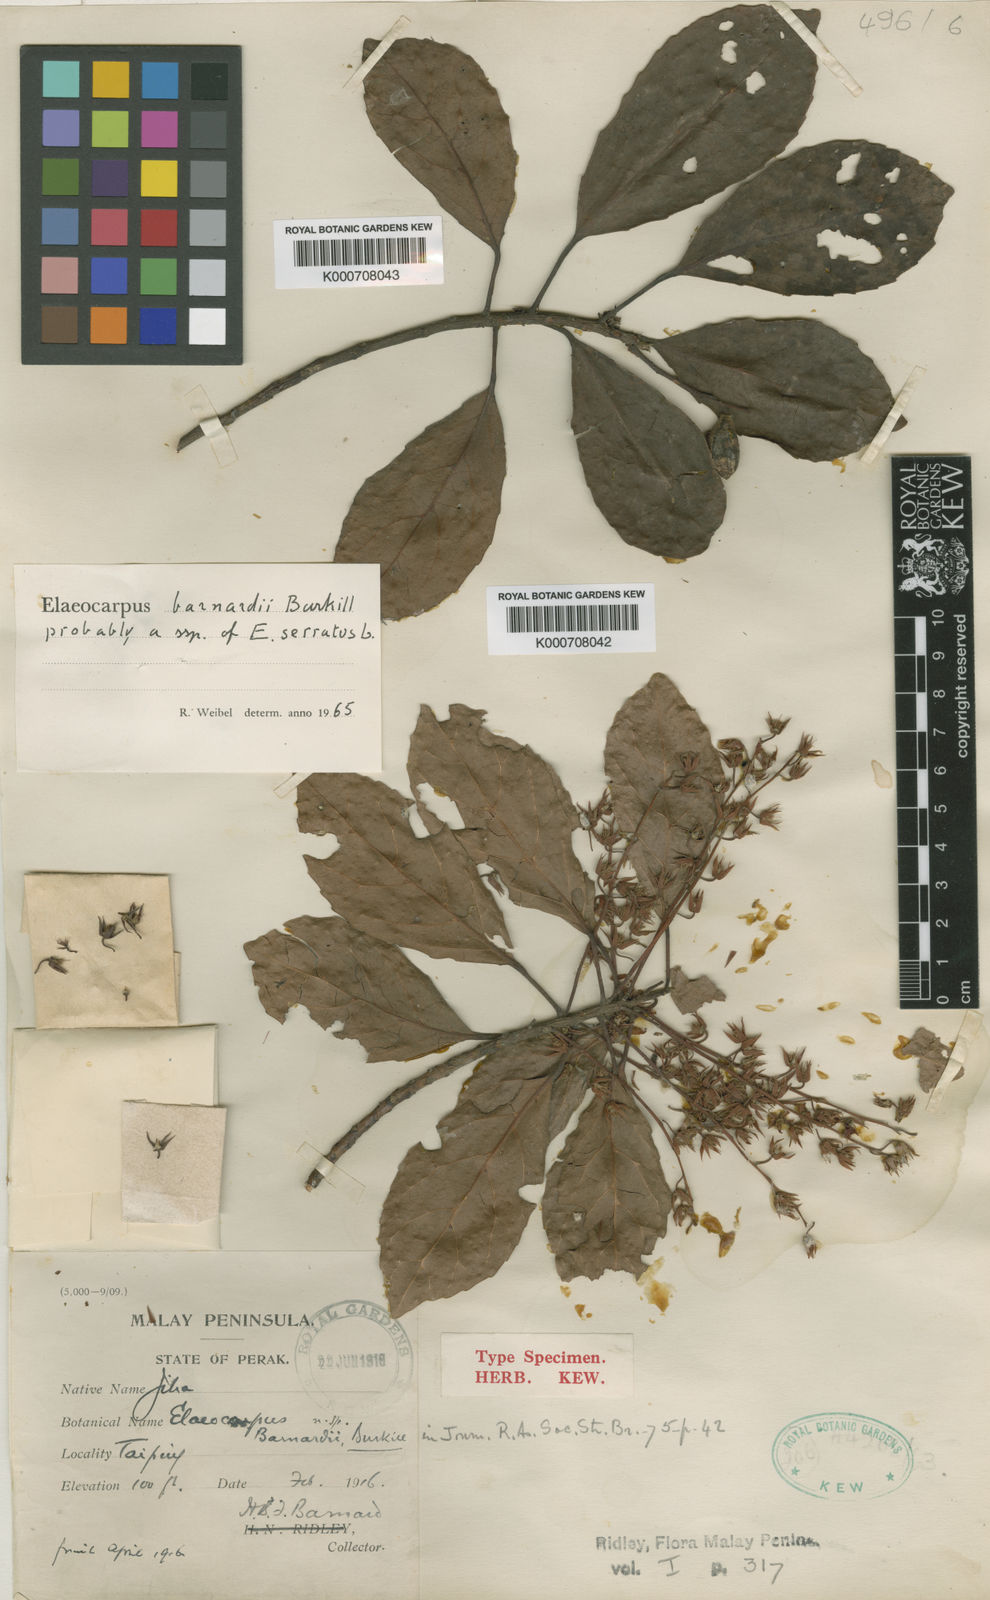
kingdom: Plantae
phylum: Tracheophyta
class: Magnoliopsida
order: Oxalidales
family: Elaeocarpaceae
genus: Elaeocarpus
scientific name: Elaeocarpus serratus
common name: Ceylon-olive
